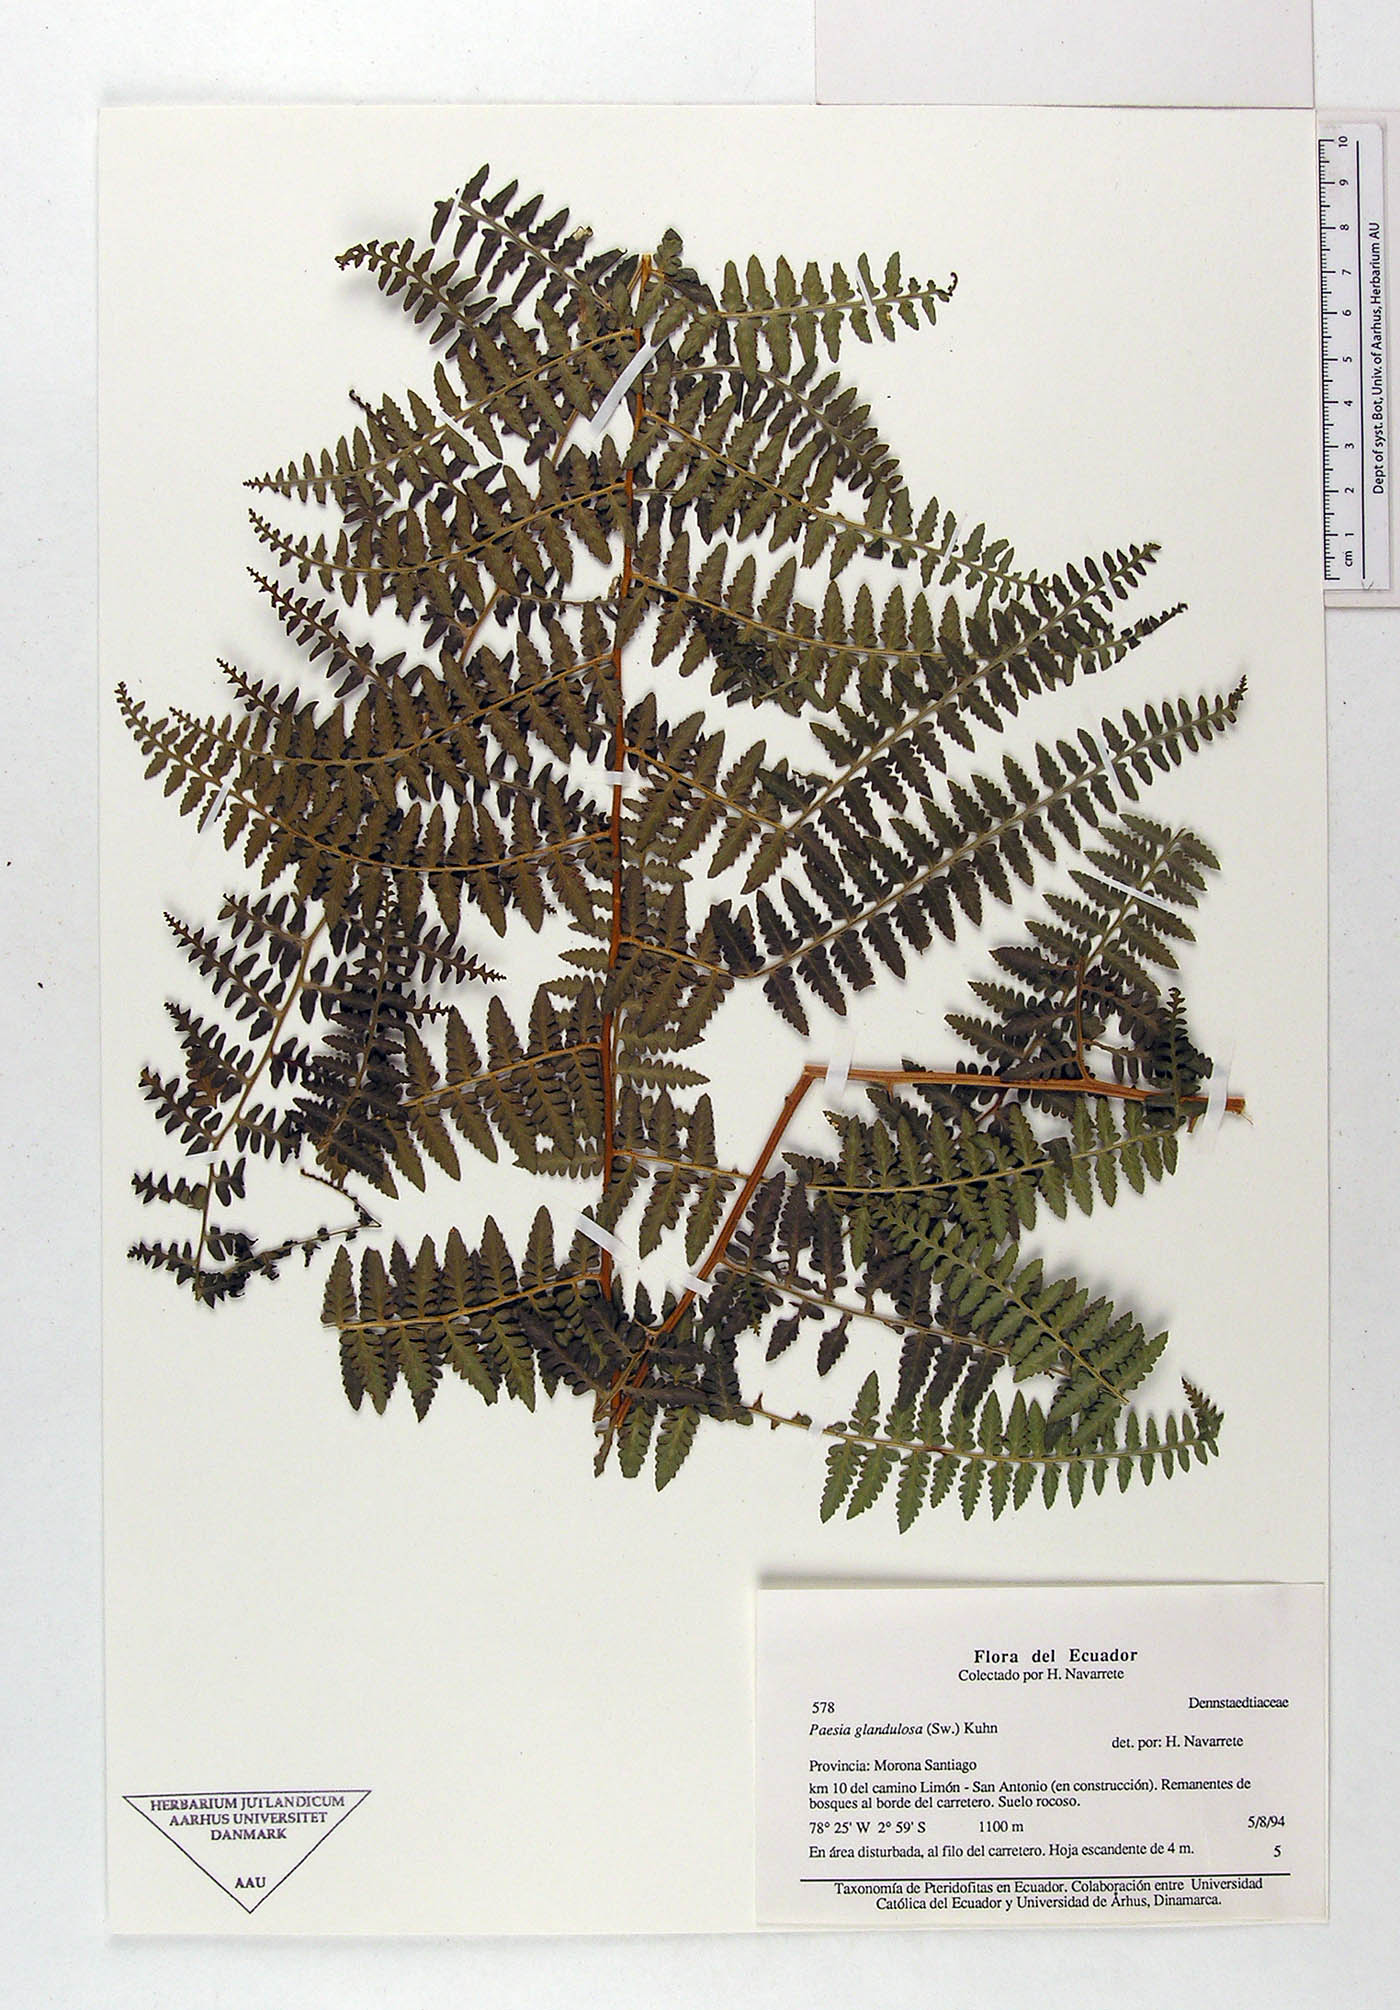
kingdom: Plantae
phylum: Tracheophyta
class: Polypodiopsida
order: Polypodiales
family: Dennstaedtiaceae
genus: Paesia
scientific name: Paesia glandulosa
